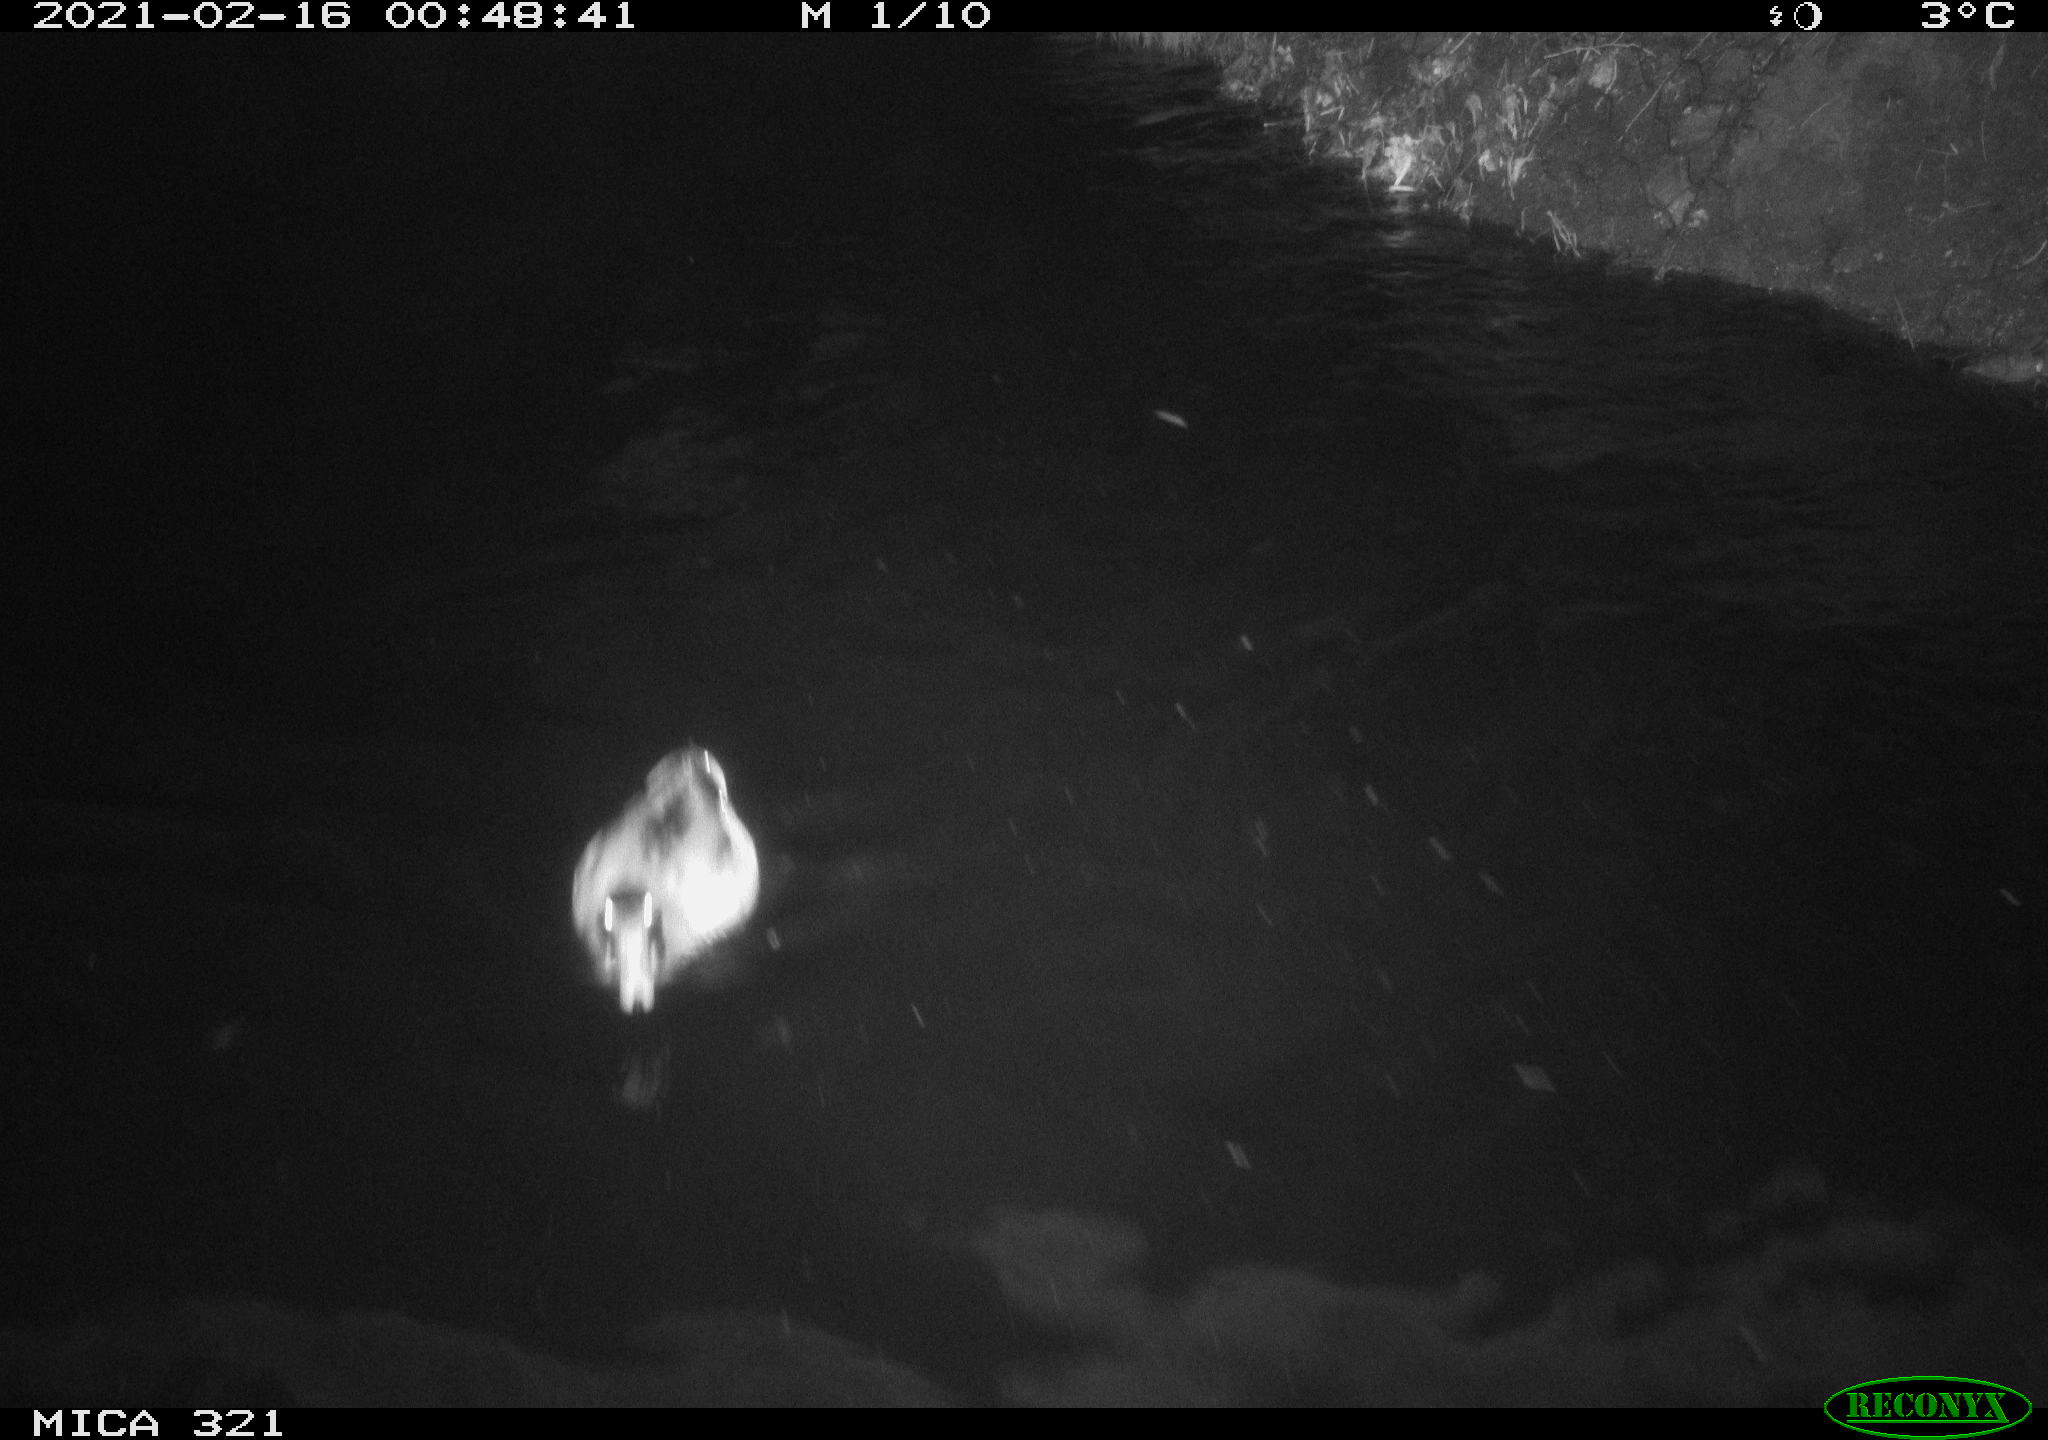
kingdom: Animalia
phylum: Chordata
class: Aves
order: Anseriformes
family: Anatidae
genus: Anas
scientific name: Anas platyrhynchos
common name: Mallard
